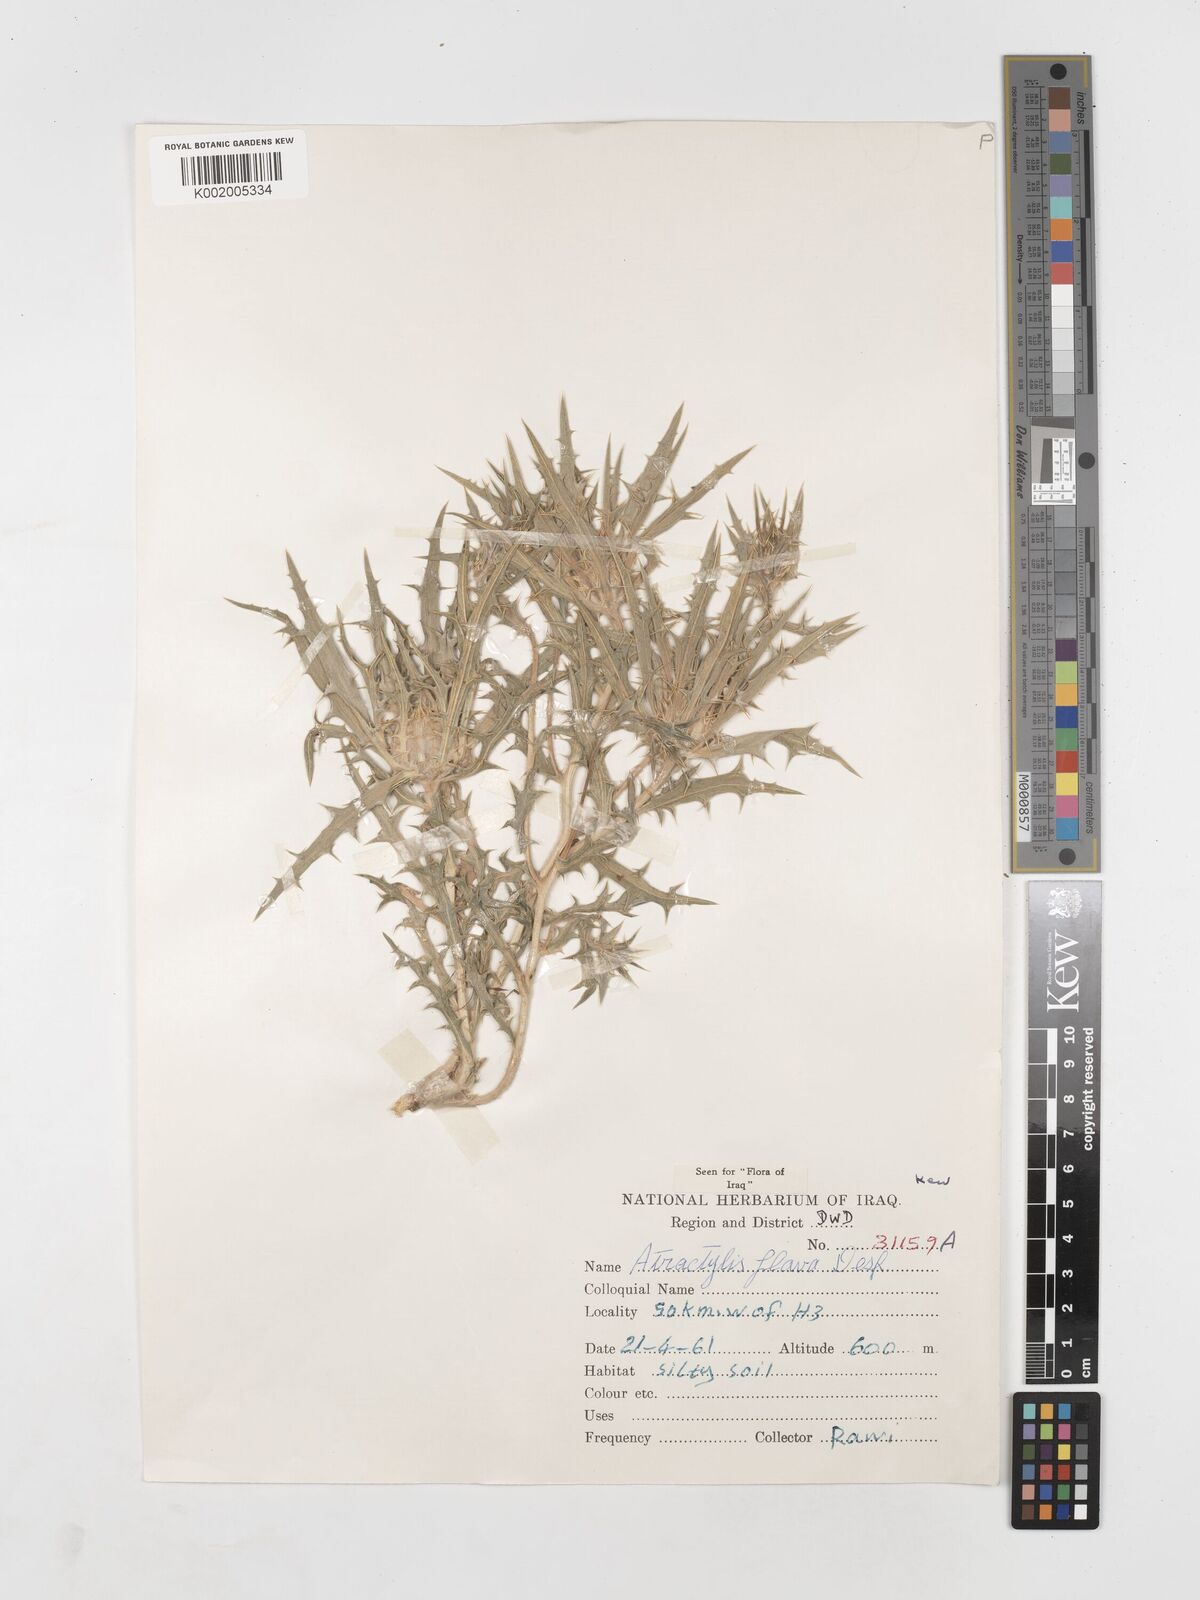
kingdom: Plantae
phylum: Tracheophyta
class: Magnoliopsida
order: Asterales
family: Asteraceae
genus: Atractylis
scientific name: Atractylis carduus
